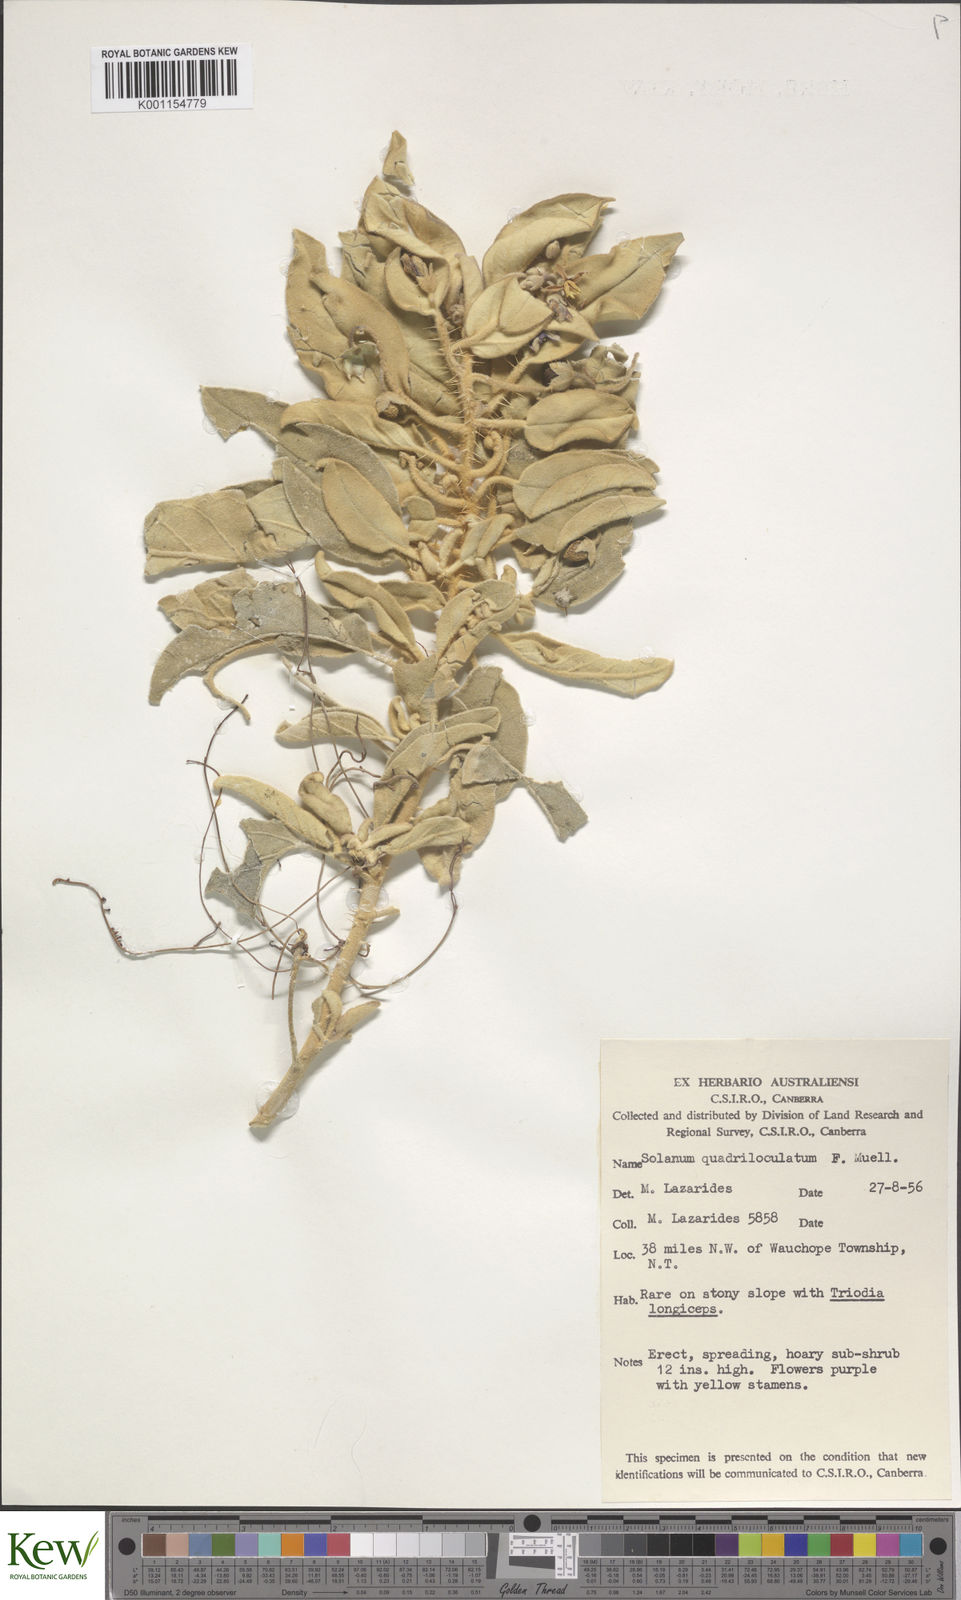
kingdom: Plantae
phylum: Tracheophyta
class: Magnoliopsida
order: Solanales
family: Solanaceae
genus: Solanum
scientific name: Solanum quadriloculatum
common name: Wild tomato
